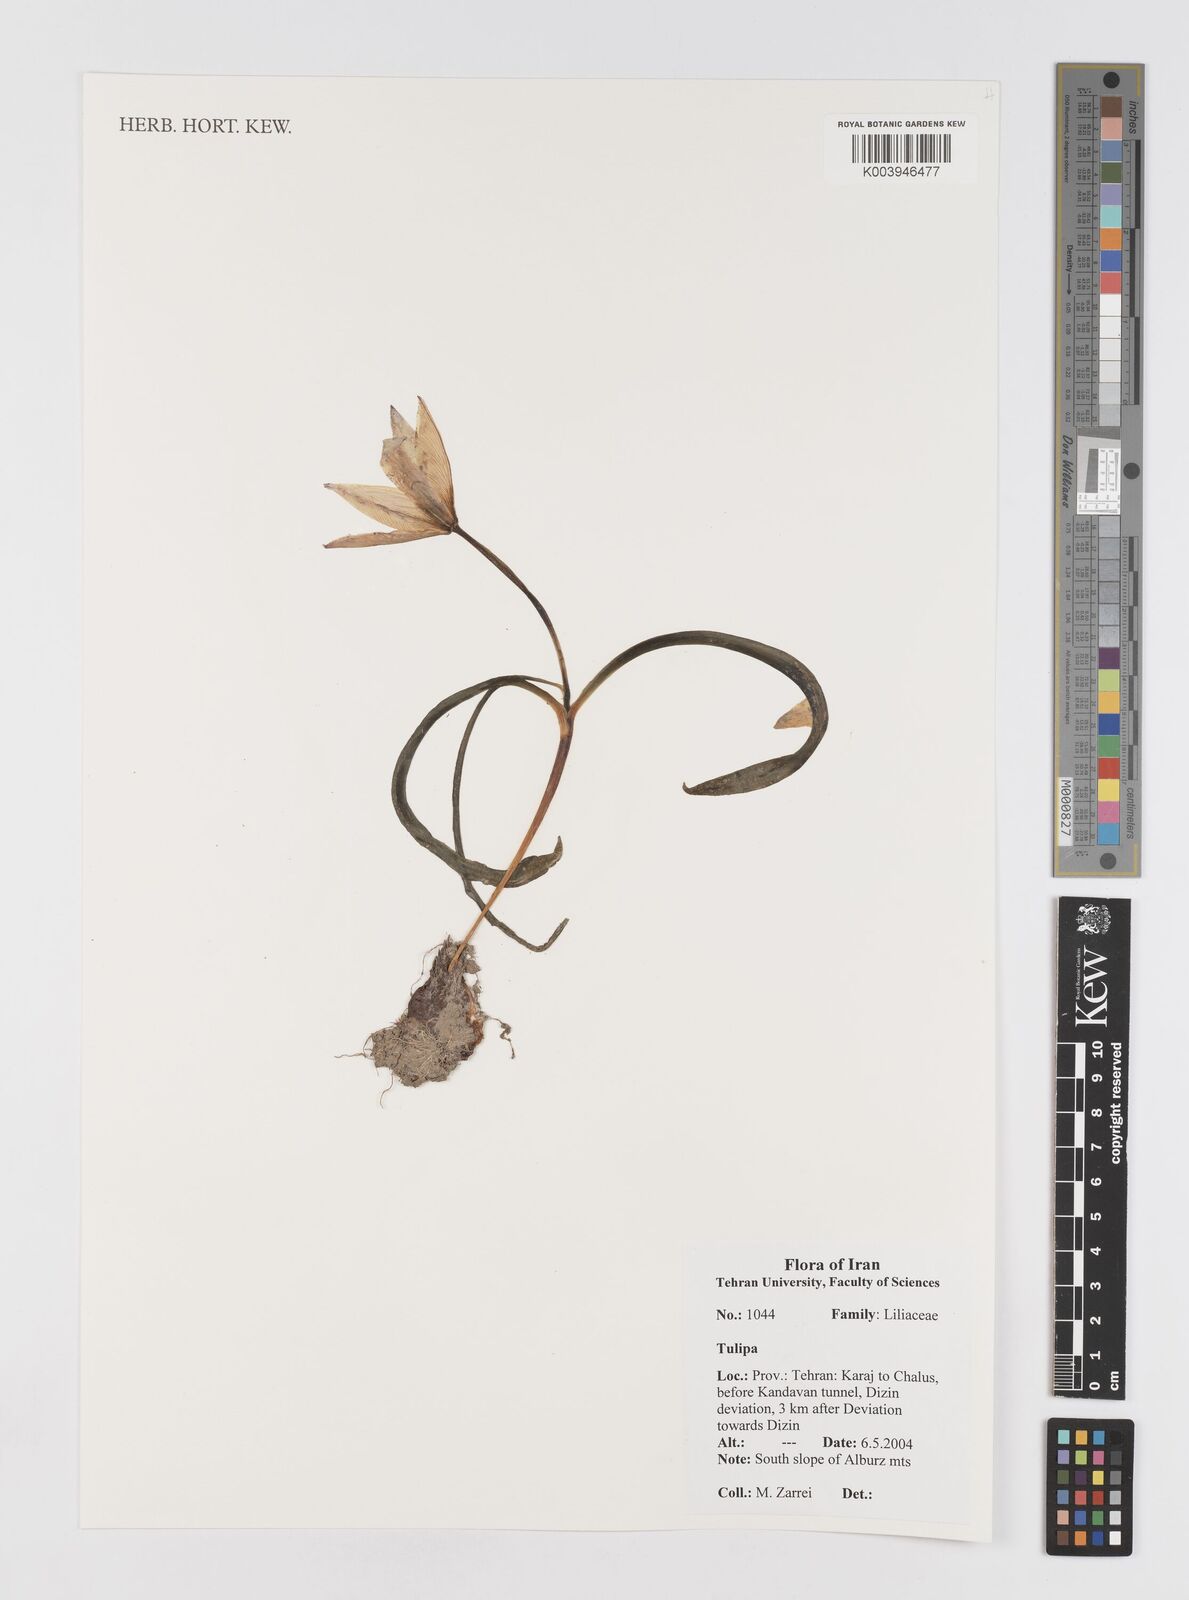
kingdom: Plantae
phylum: Tracheophyta
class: Liliopsida
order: Liliales
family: Liliaceae
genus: Tulipa
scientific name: Tulipa
